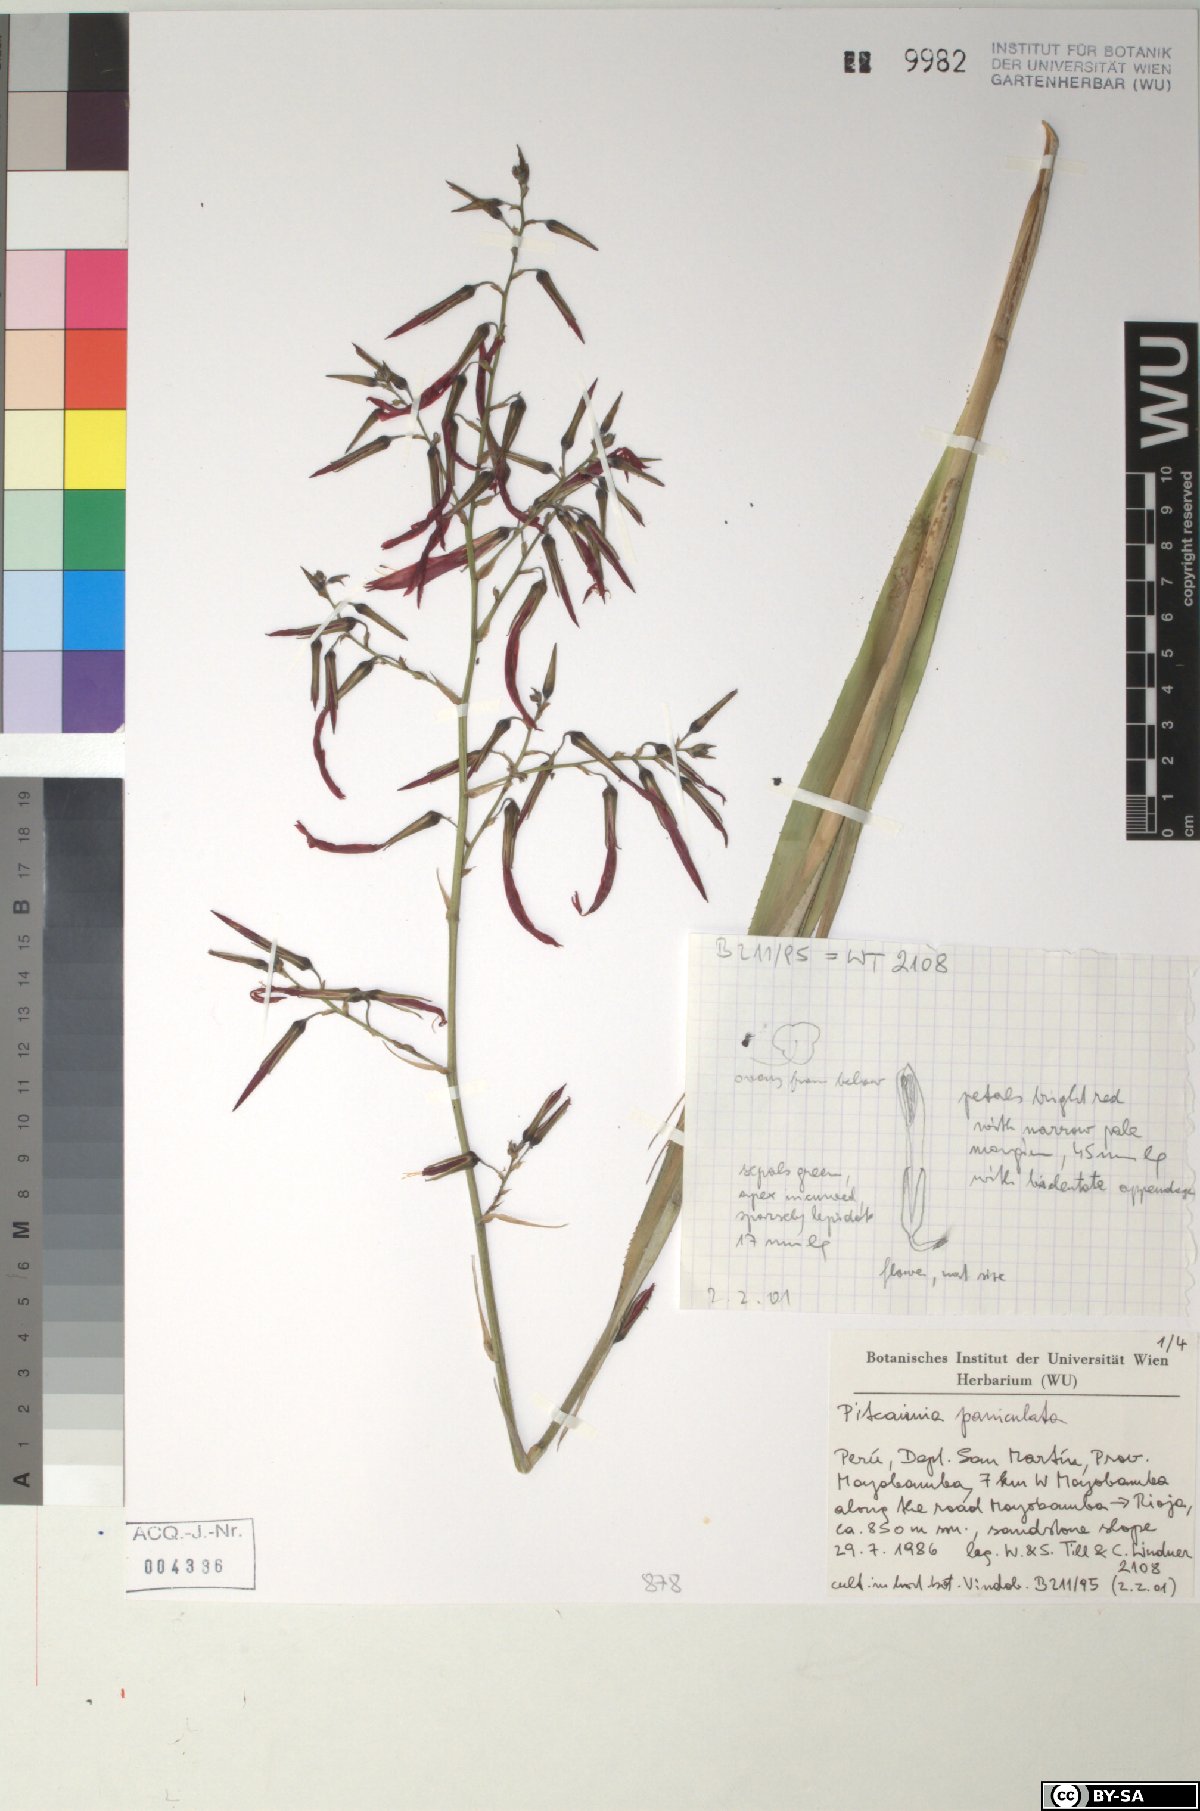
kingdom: Plantae
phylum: Tracheophyta
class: Liliopsida
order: Poales
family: Bromeliaceae
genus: Pitcairnia
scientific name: Pitcairnia paniculata
